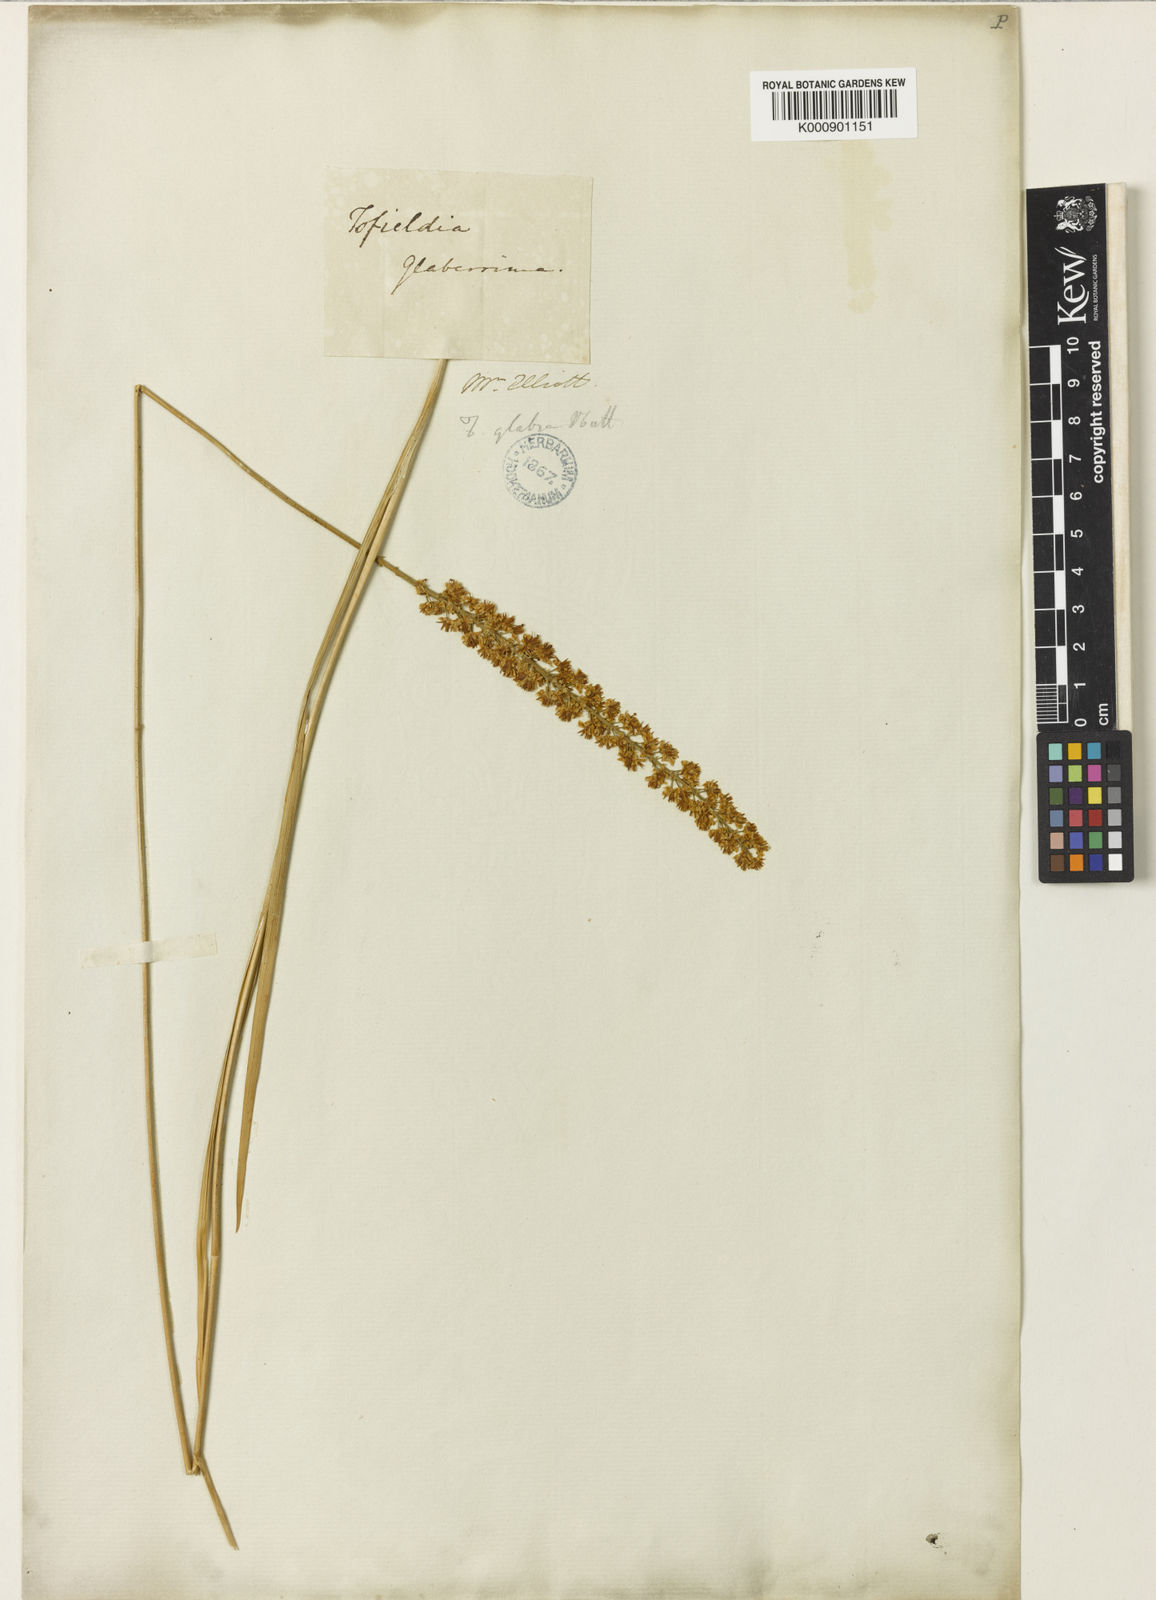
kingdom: Plantae
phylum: Tracheophyta
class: Liliopsida
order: Alismatales
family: Tofieldiaceae
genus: Tofieldia
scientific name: Tofieldia glabra
